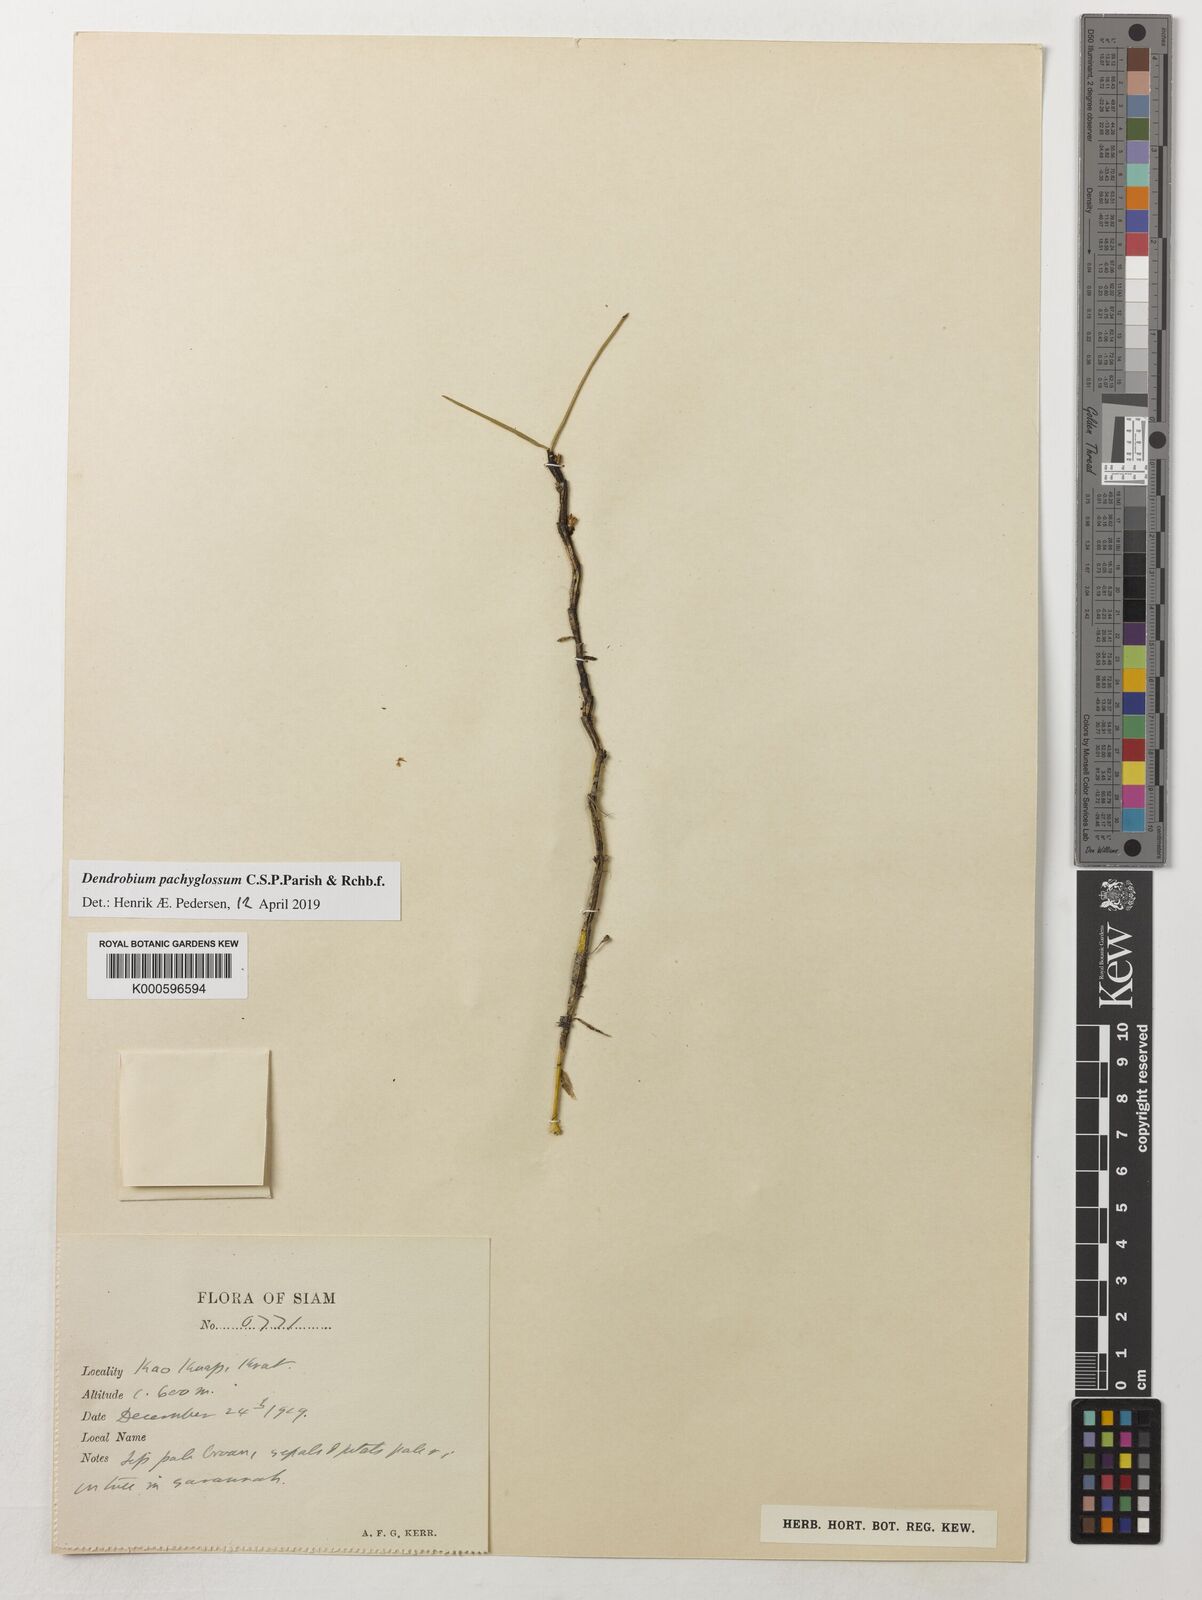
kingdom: Plantae
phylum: Tracheophyta
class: Liliopsida
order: Asparagales
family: Orchidaceae
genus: Dendrobium
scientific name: Dendrobium pachyglossum
